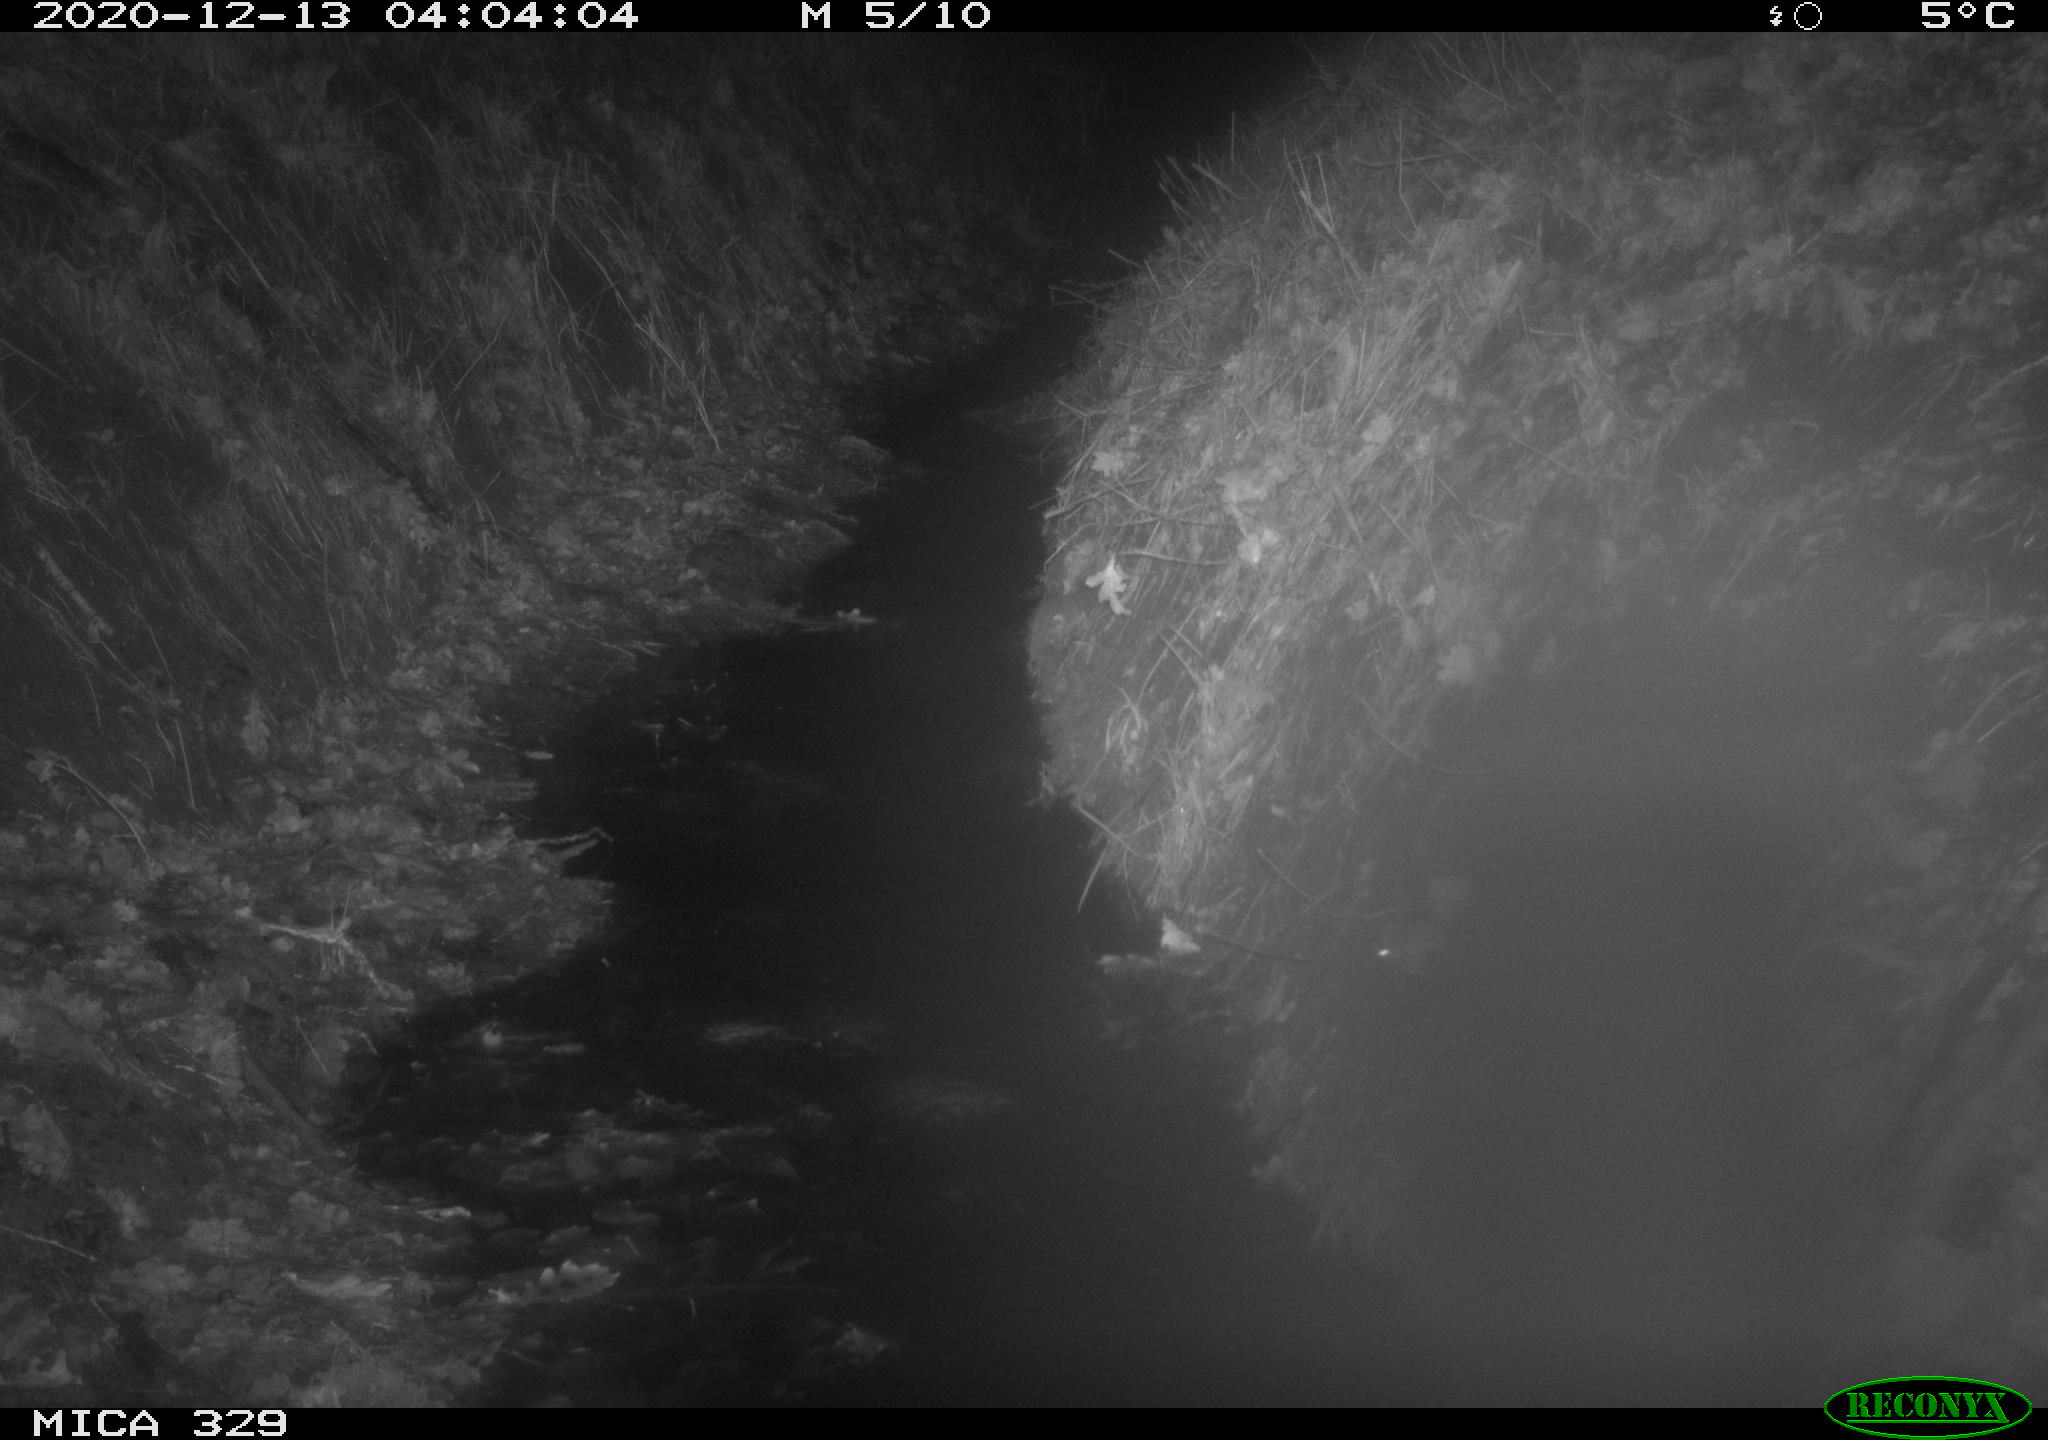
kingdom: Animalia
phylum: Chordata
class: Mammalia
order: Rodentia
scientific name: Rodentia
